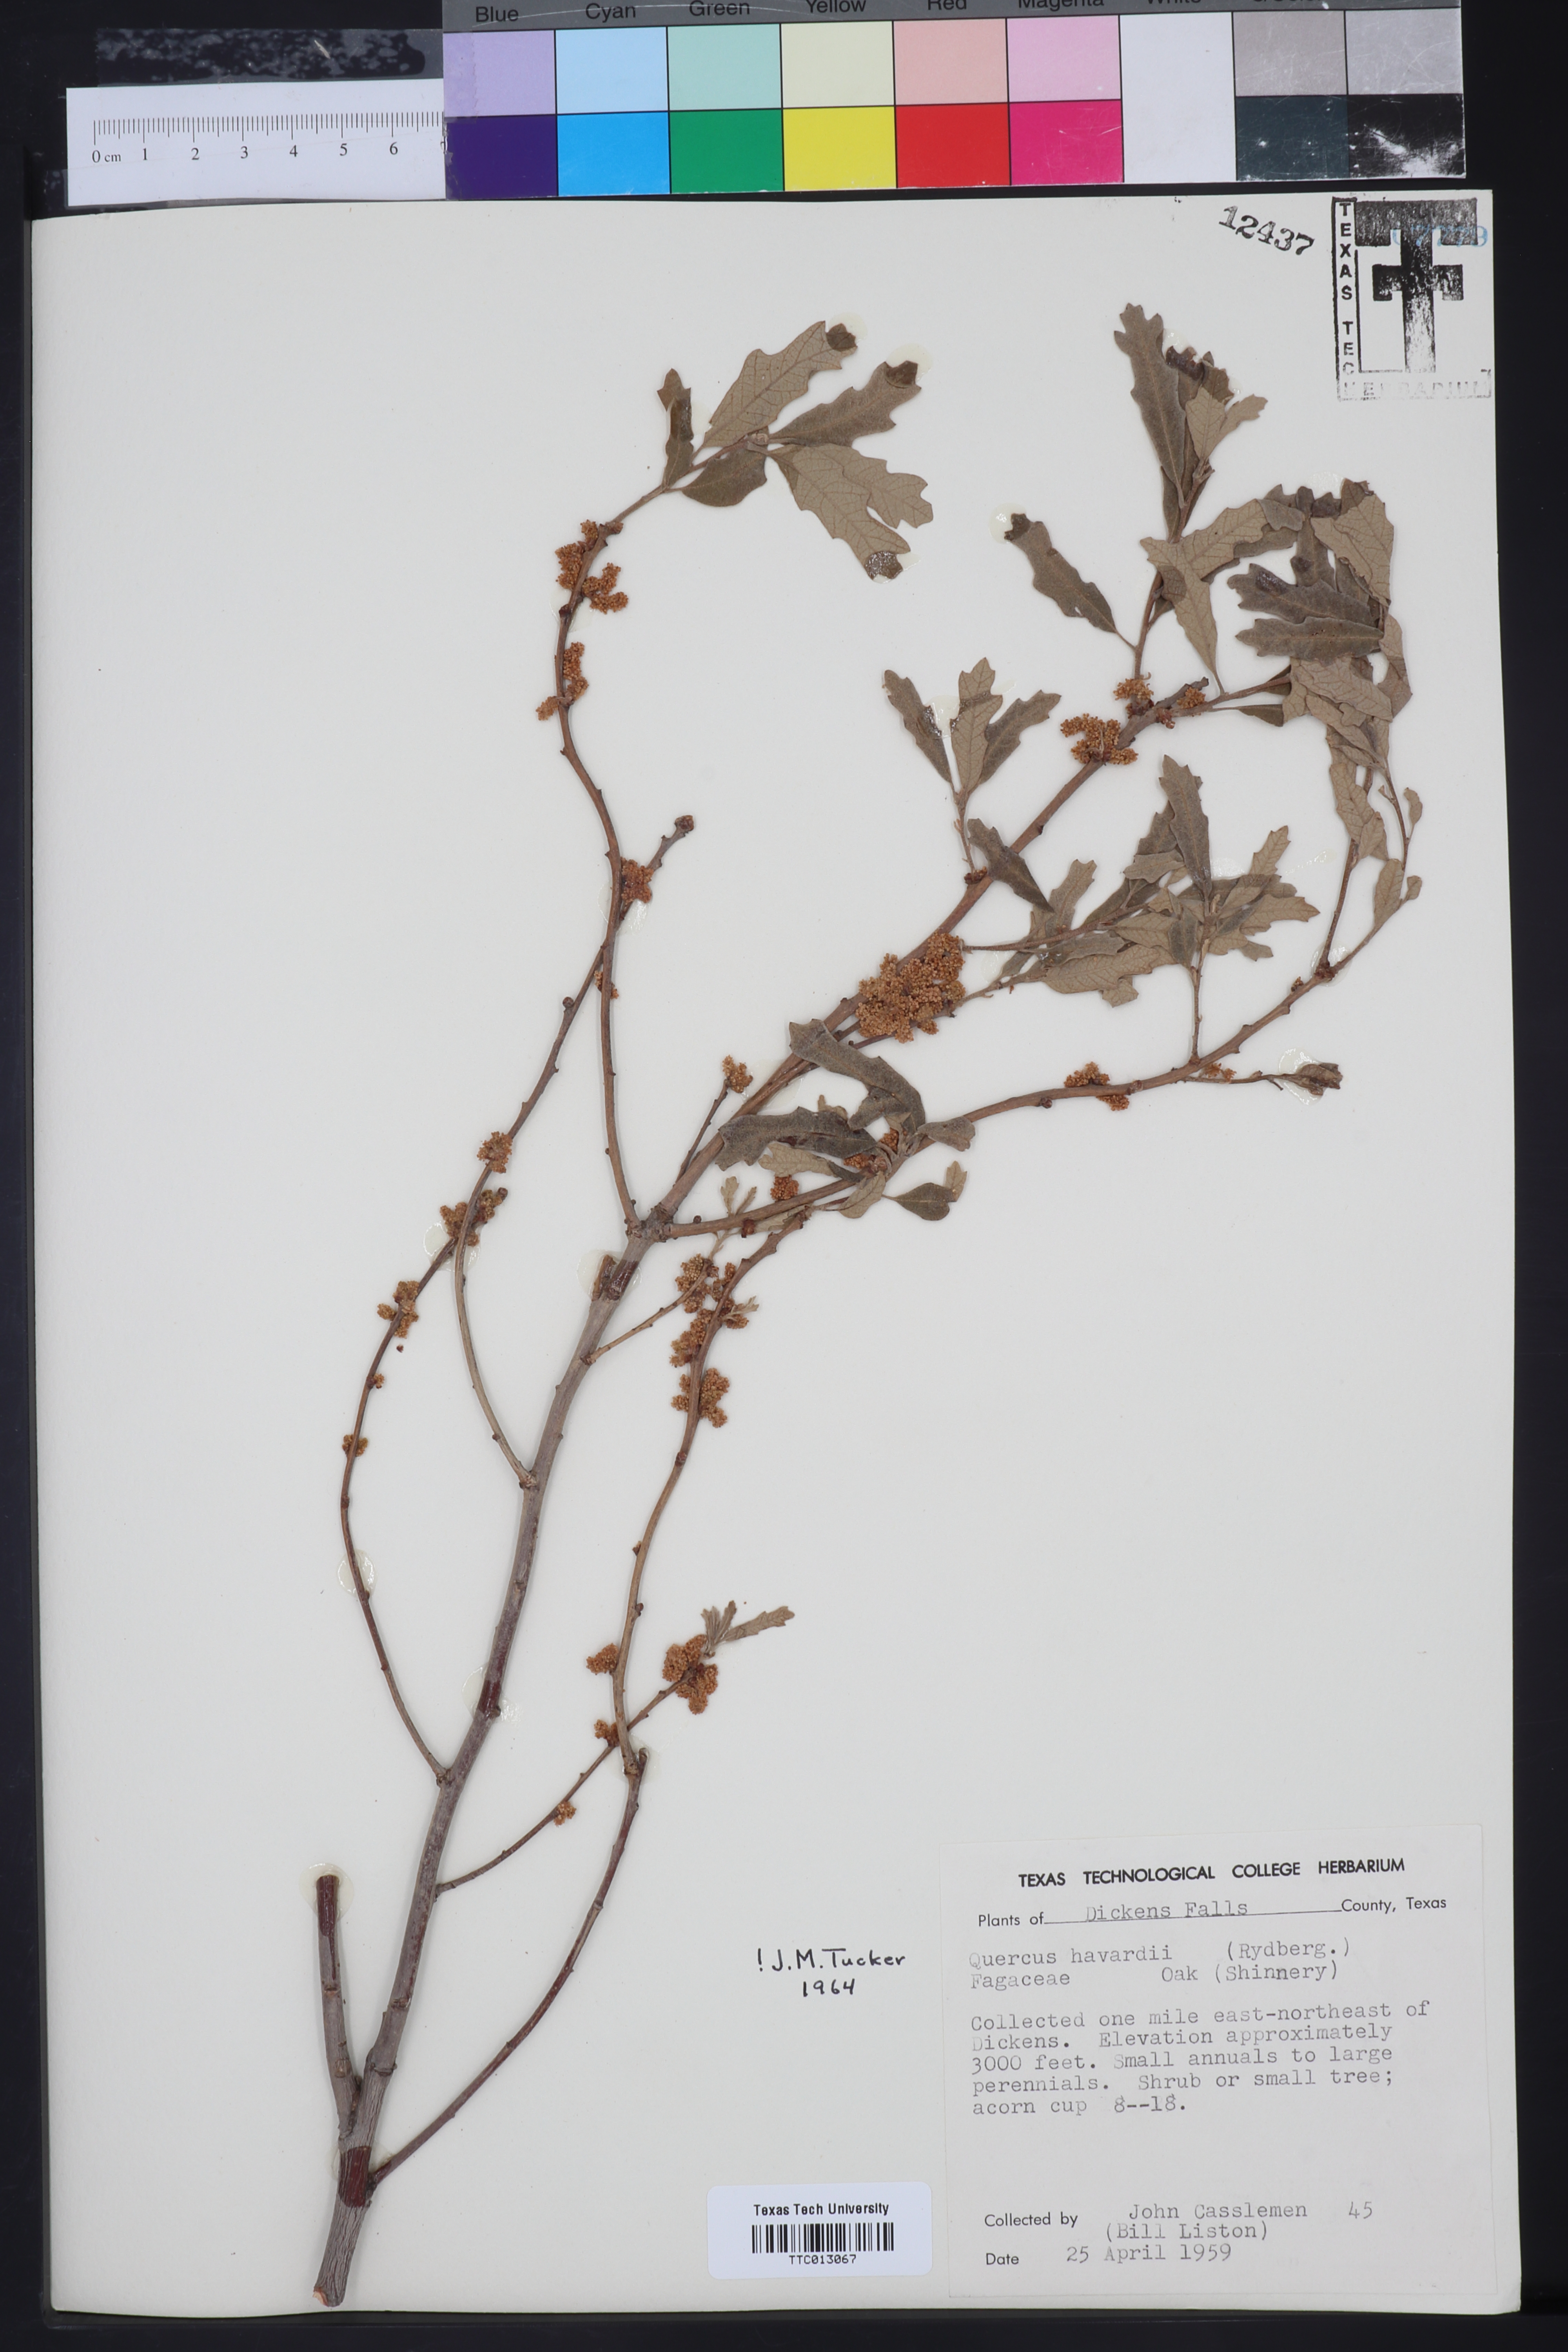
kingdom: Plantae
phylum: Tracheophyta
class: Magnoliopsida
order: Fagales
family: Fagaceae
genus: Quercus
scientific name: Quercus havardii
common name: Shinnery oak
